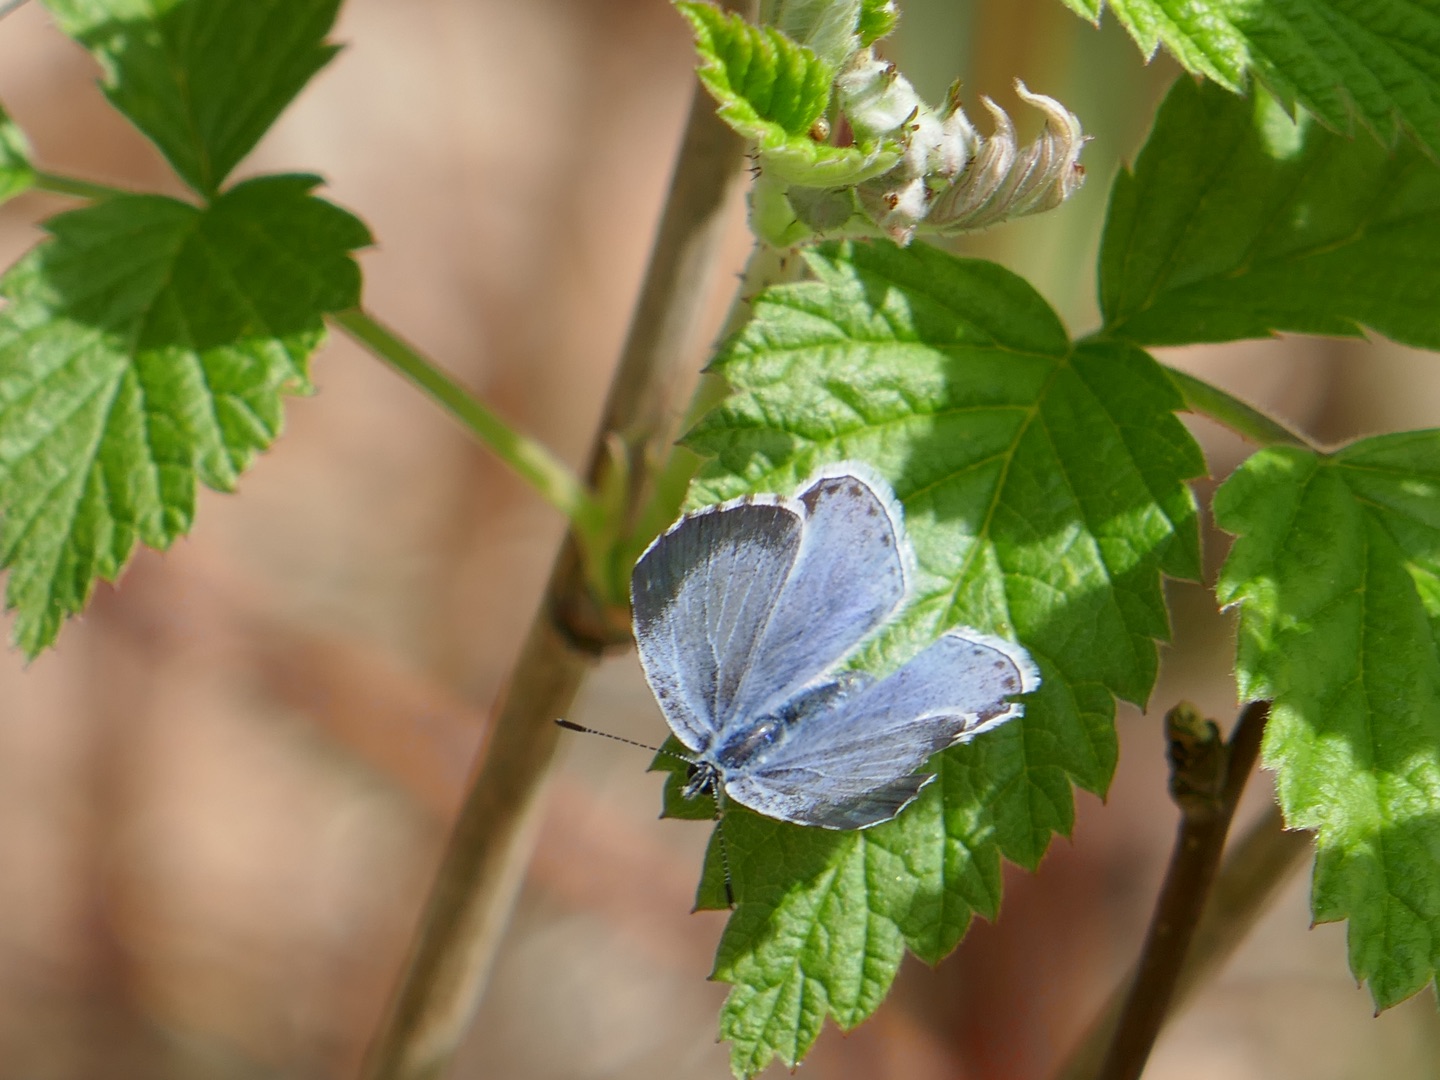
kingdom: Animalia
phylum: Arthropoda
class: Insecta
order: Lepidoptera
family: Lycaenidae
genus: Celastrina
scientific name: Celastrina argiolus
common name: Skovblåfugl
